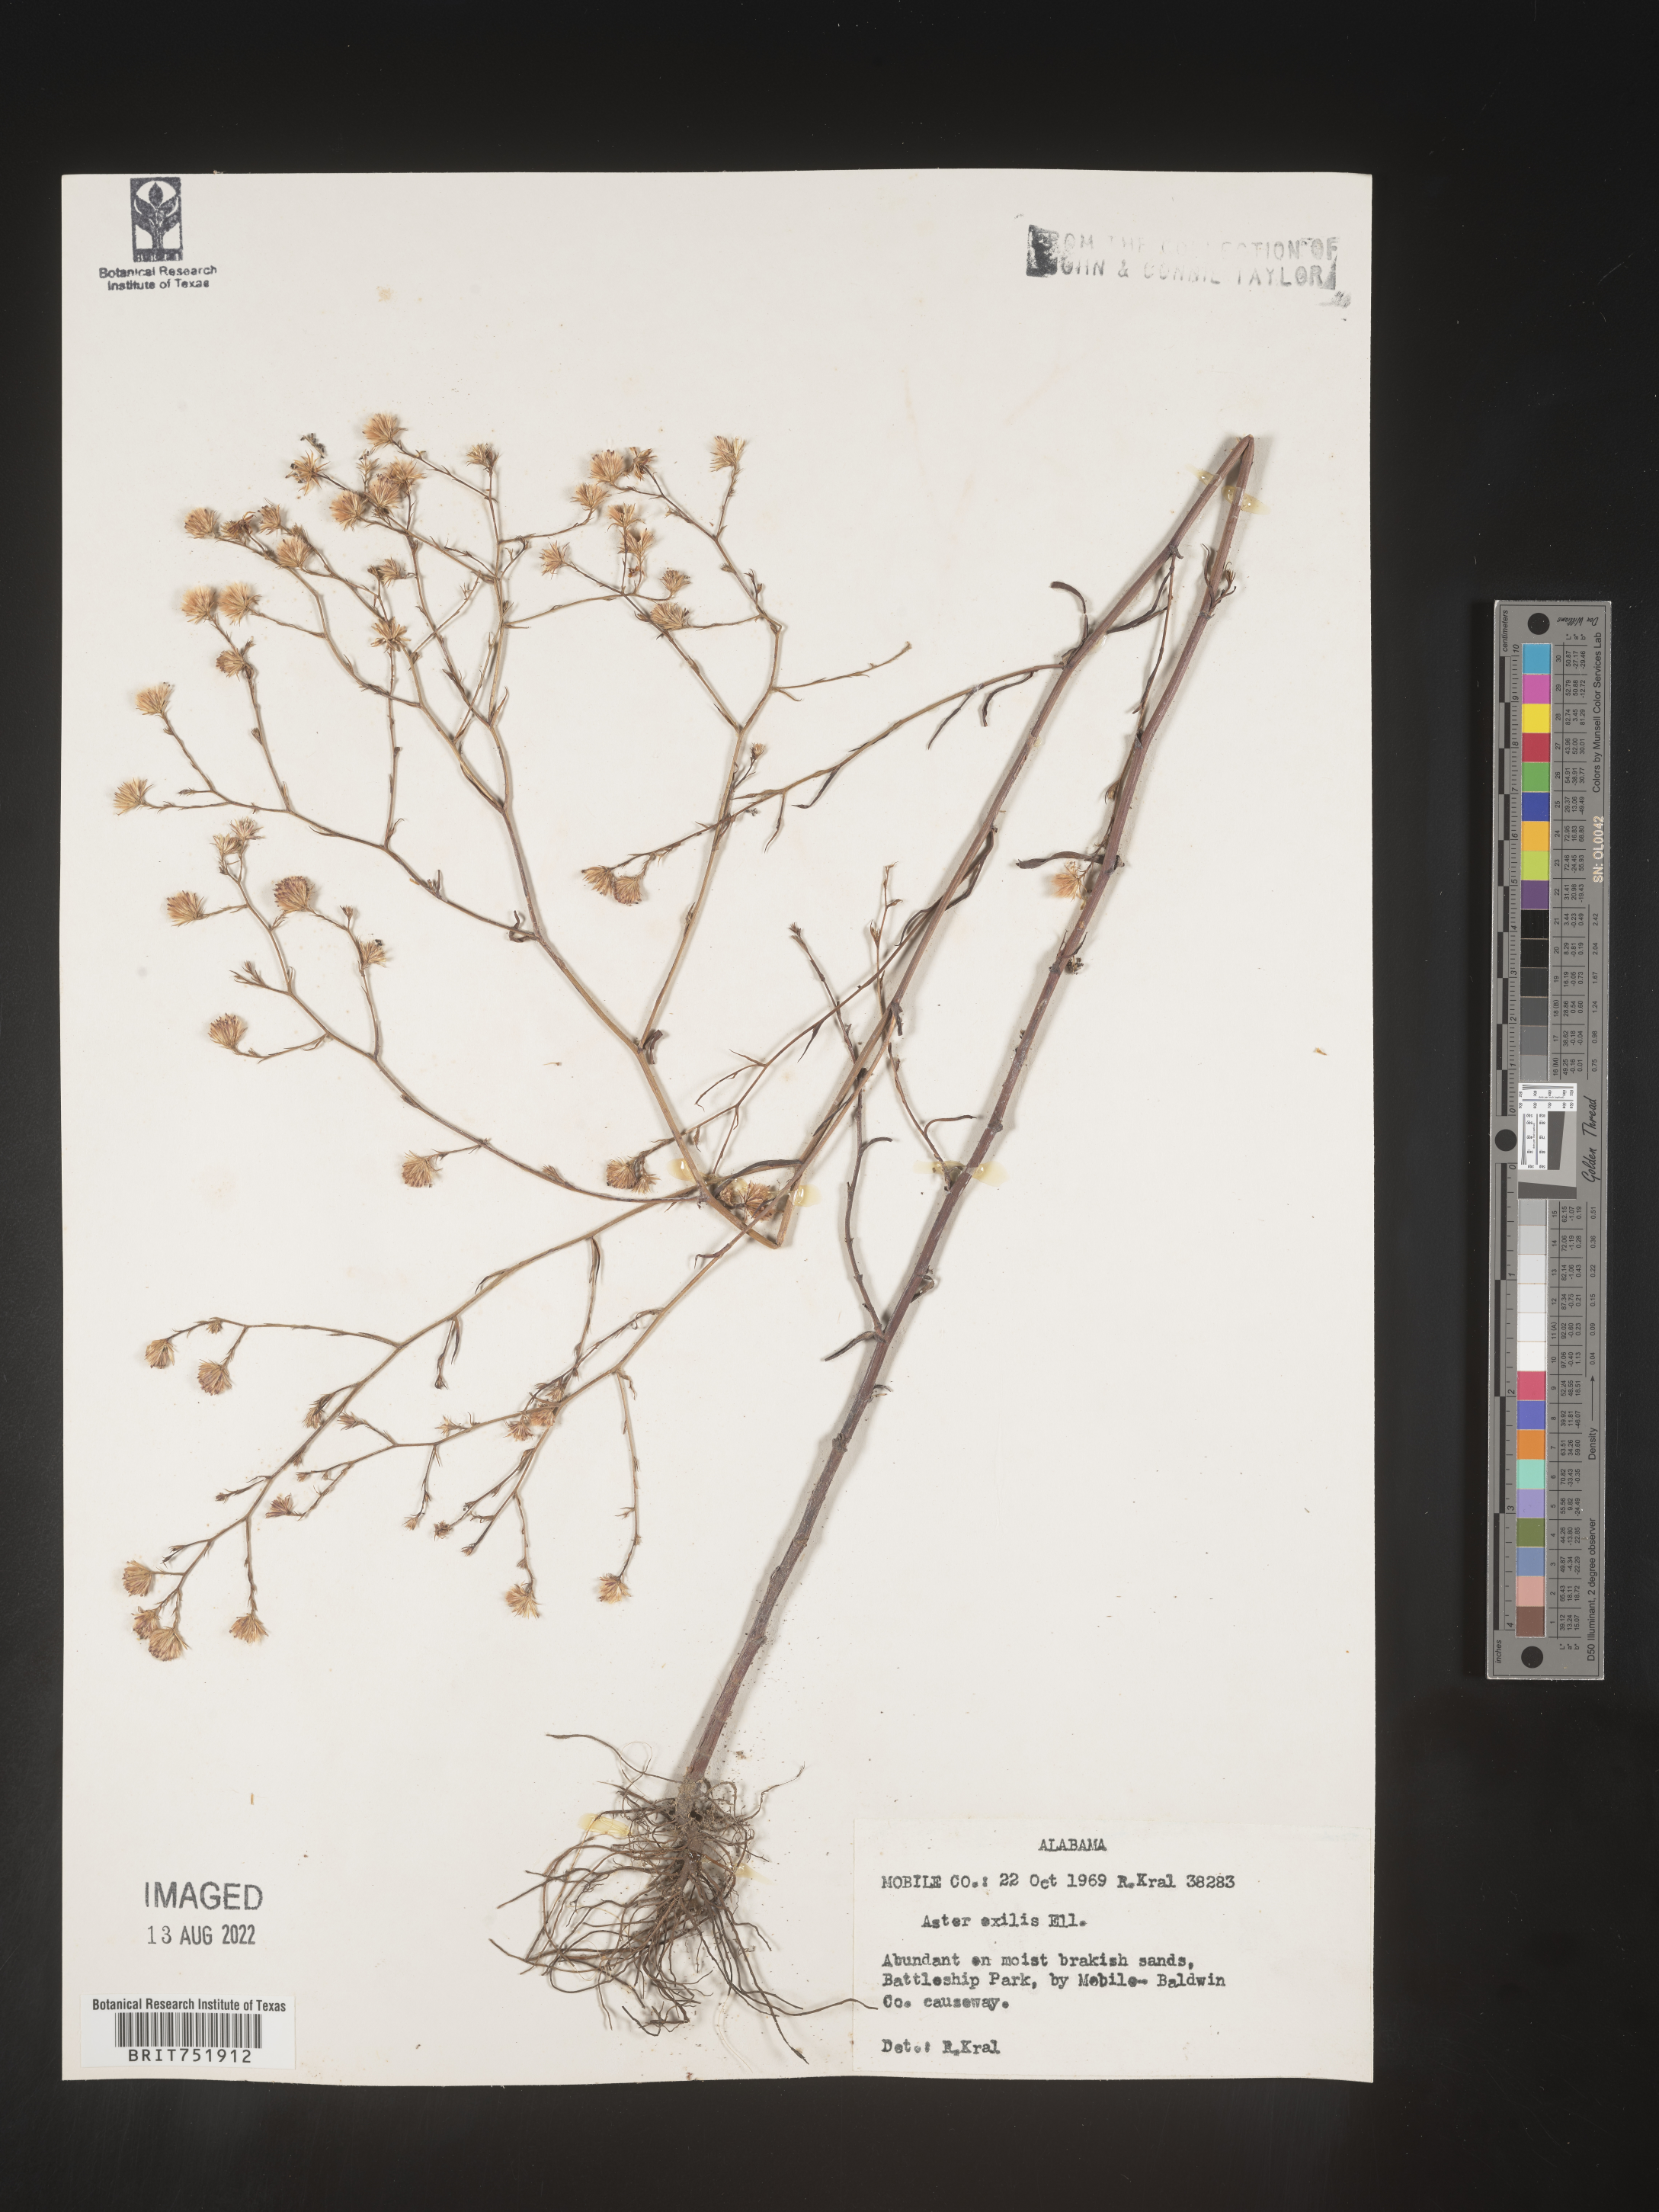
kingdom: Plantae
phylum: Tracheophyta
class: Magnoliopsida
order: Asterales
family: Asteraceae
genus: Symphyotrichum
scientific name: Symphyotrichum divaricatum
